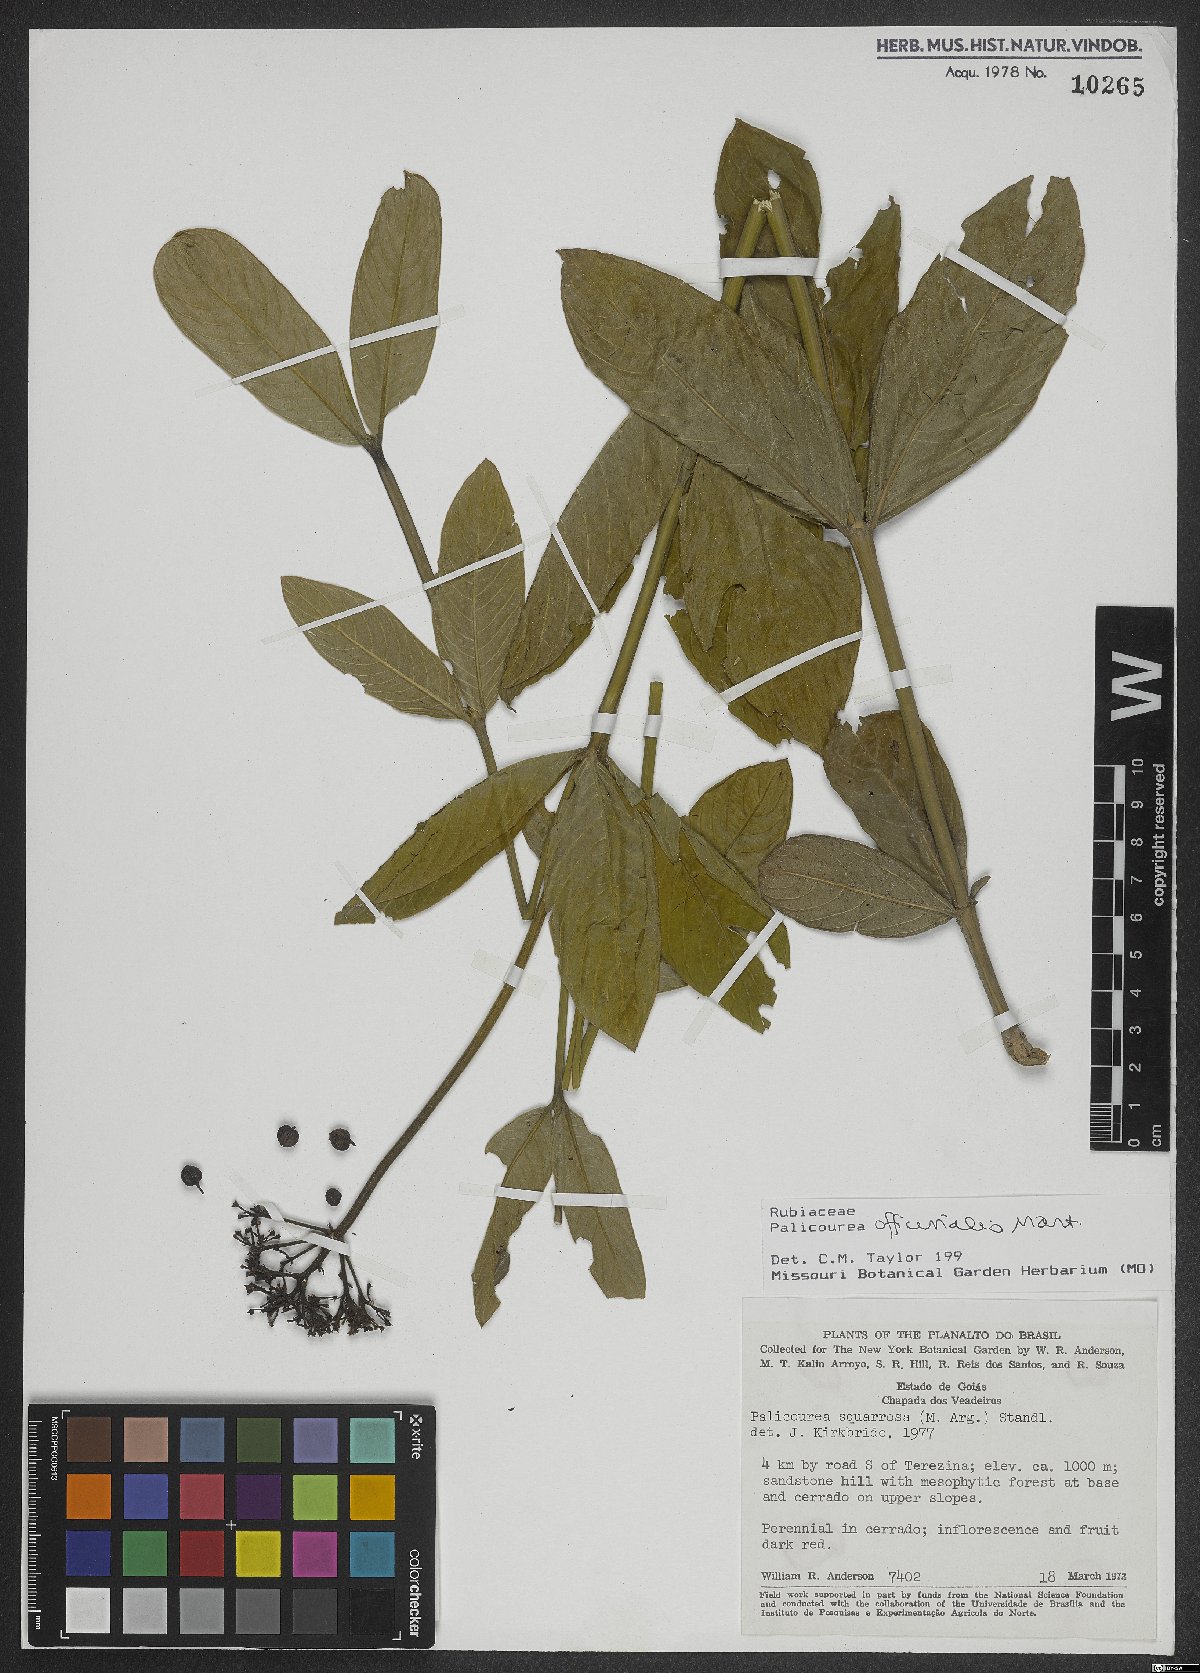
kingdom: Plantae
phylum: Tracheophyta
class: Magnoliopsida
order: Gentianales
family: Rubiaceae
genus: Palicourea
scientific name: Palicourea officinalis
